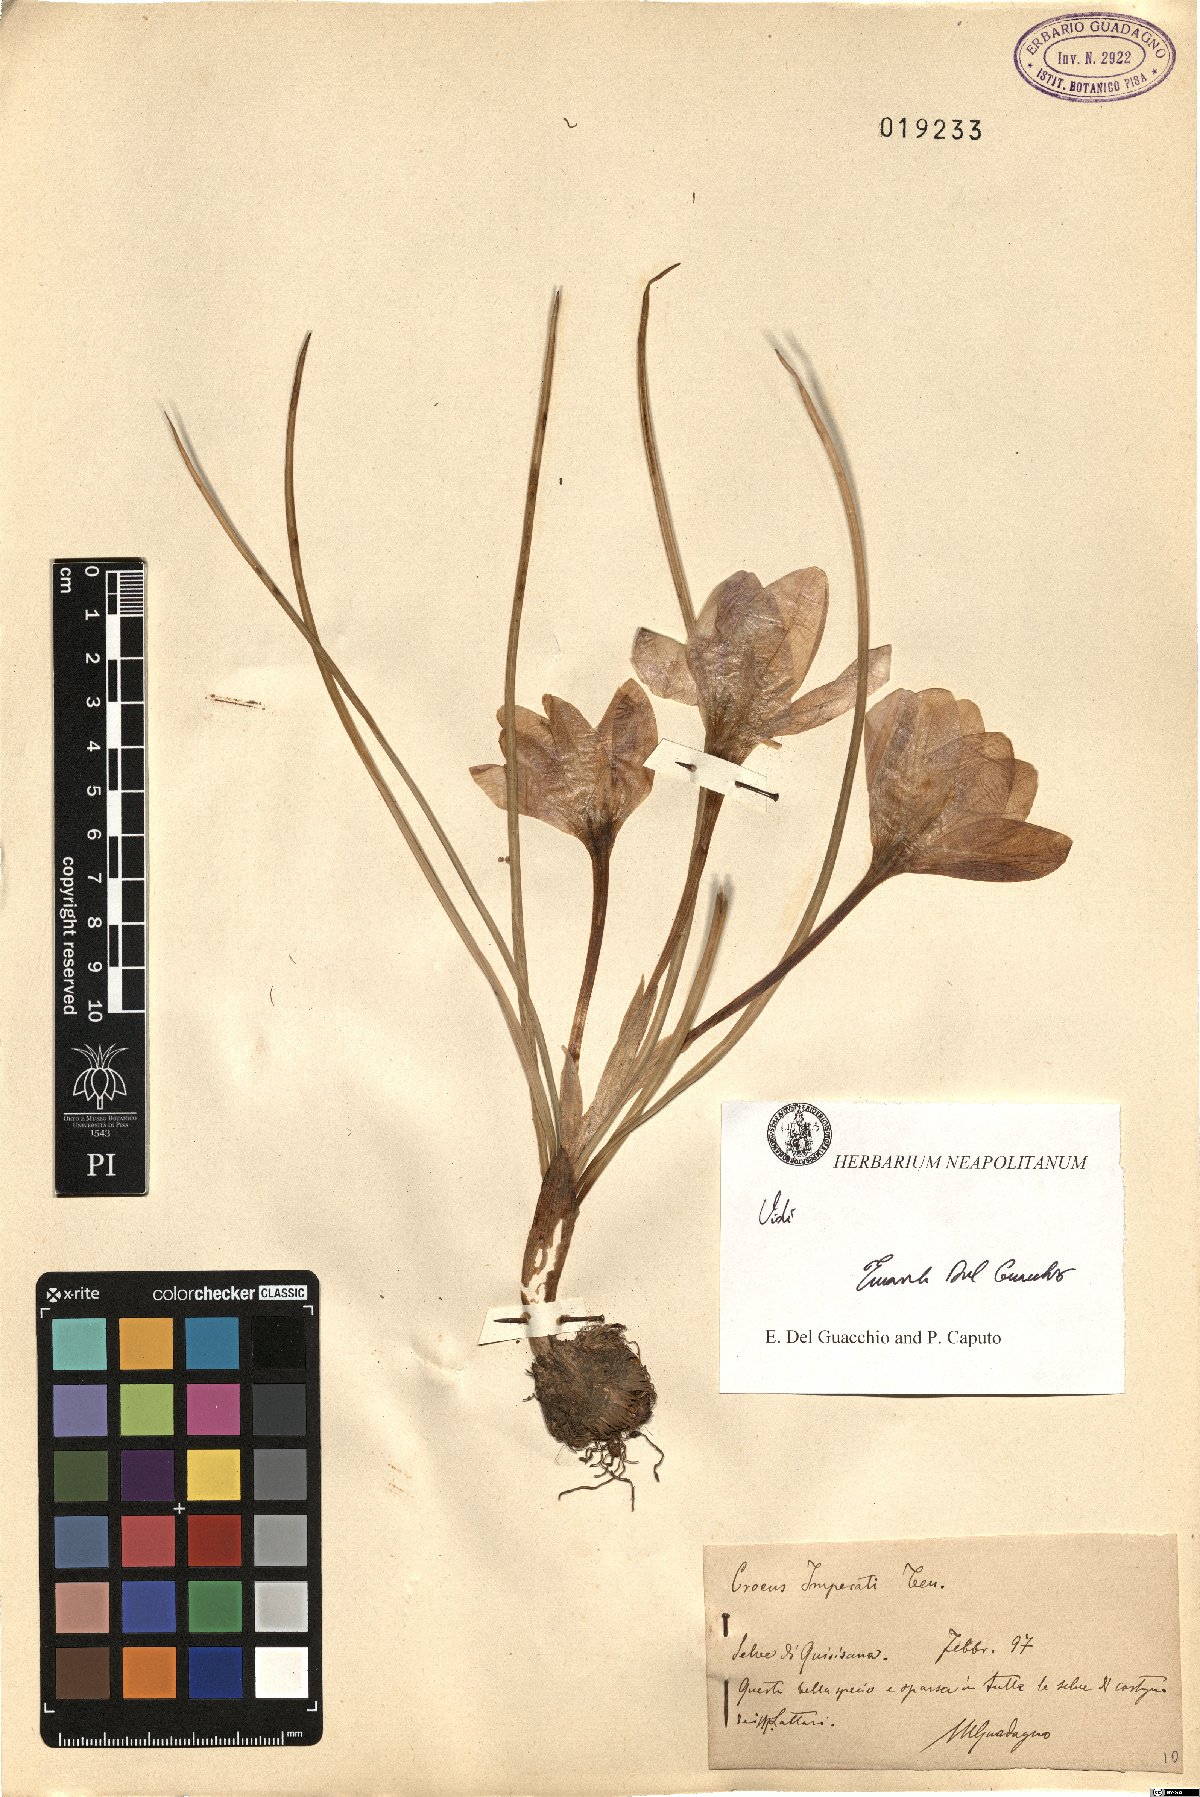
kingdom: Plantae
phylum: Tracheophyta
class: Liliopsida
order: Asparagales
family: Iridaceae
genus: Crocus
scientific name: Crocus imperati
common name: Early crocus
